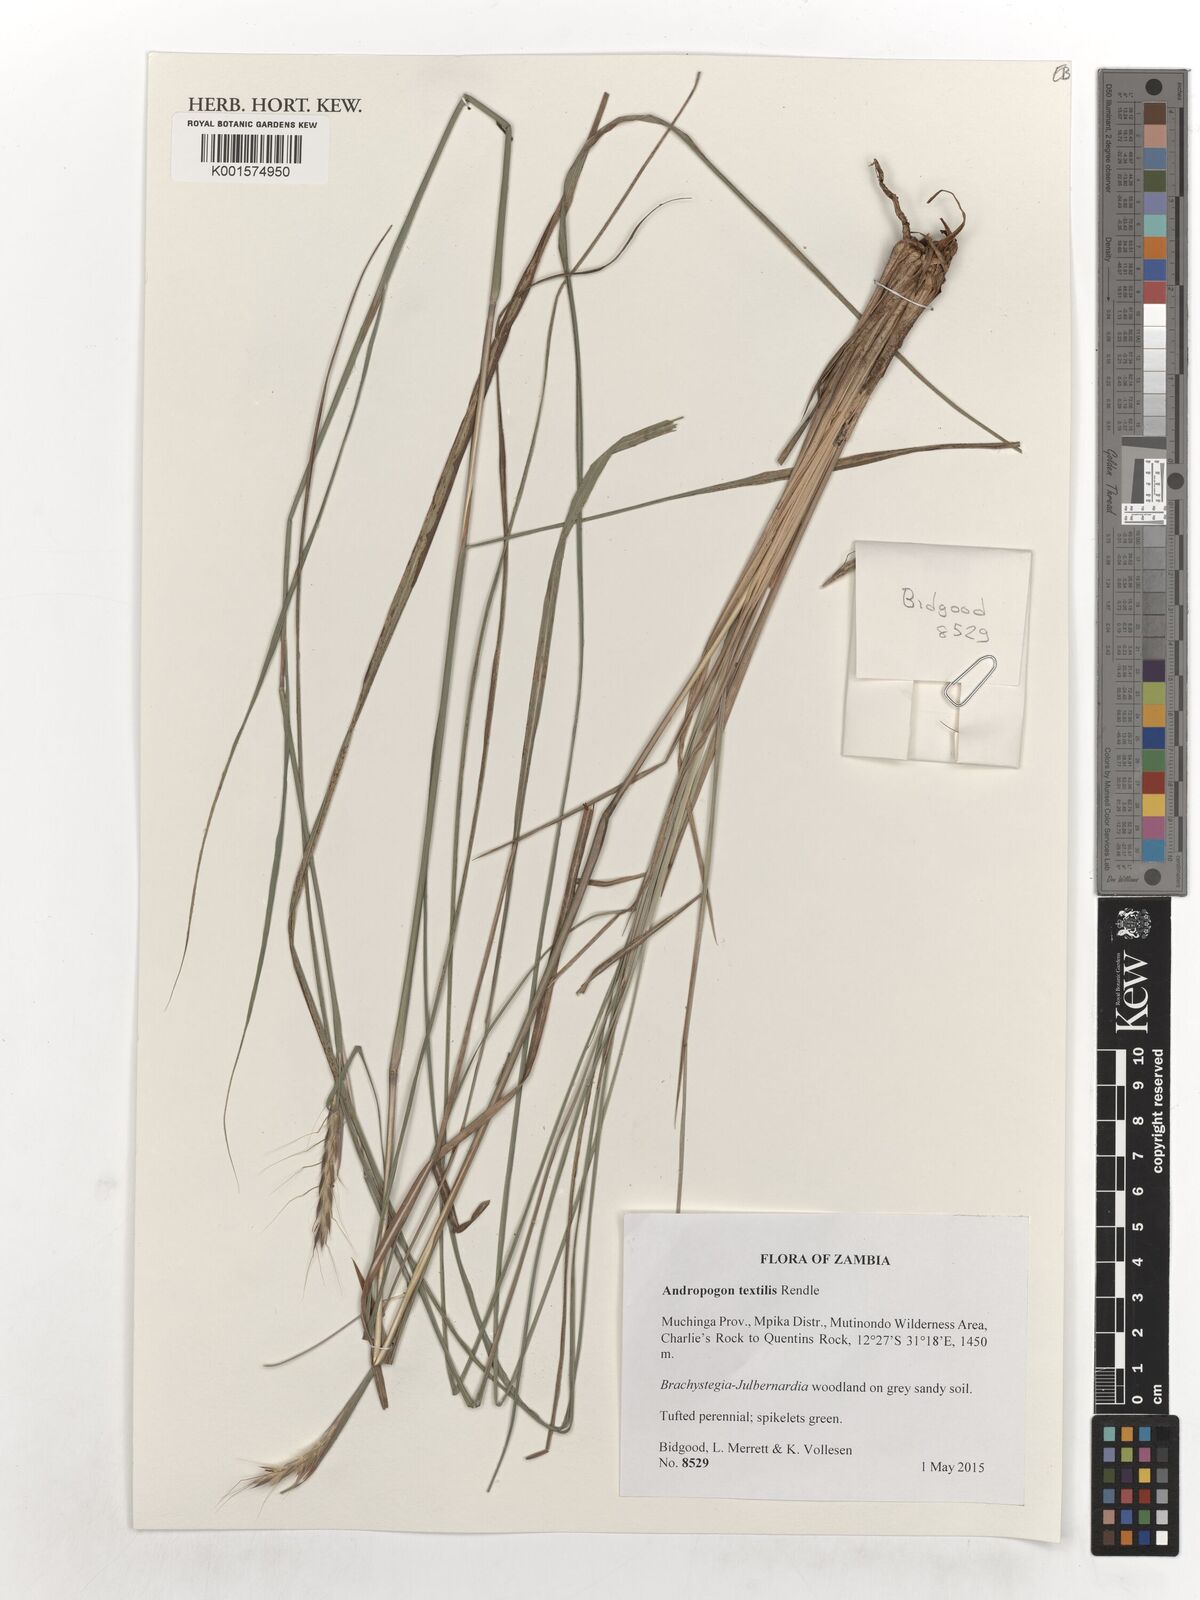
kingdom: Plantae
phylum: Tracheophyta
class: Liliopsida
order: Poales
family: Poaceae
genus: Andropogon
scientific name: Andropogon textilis
